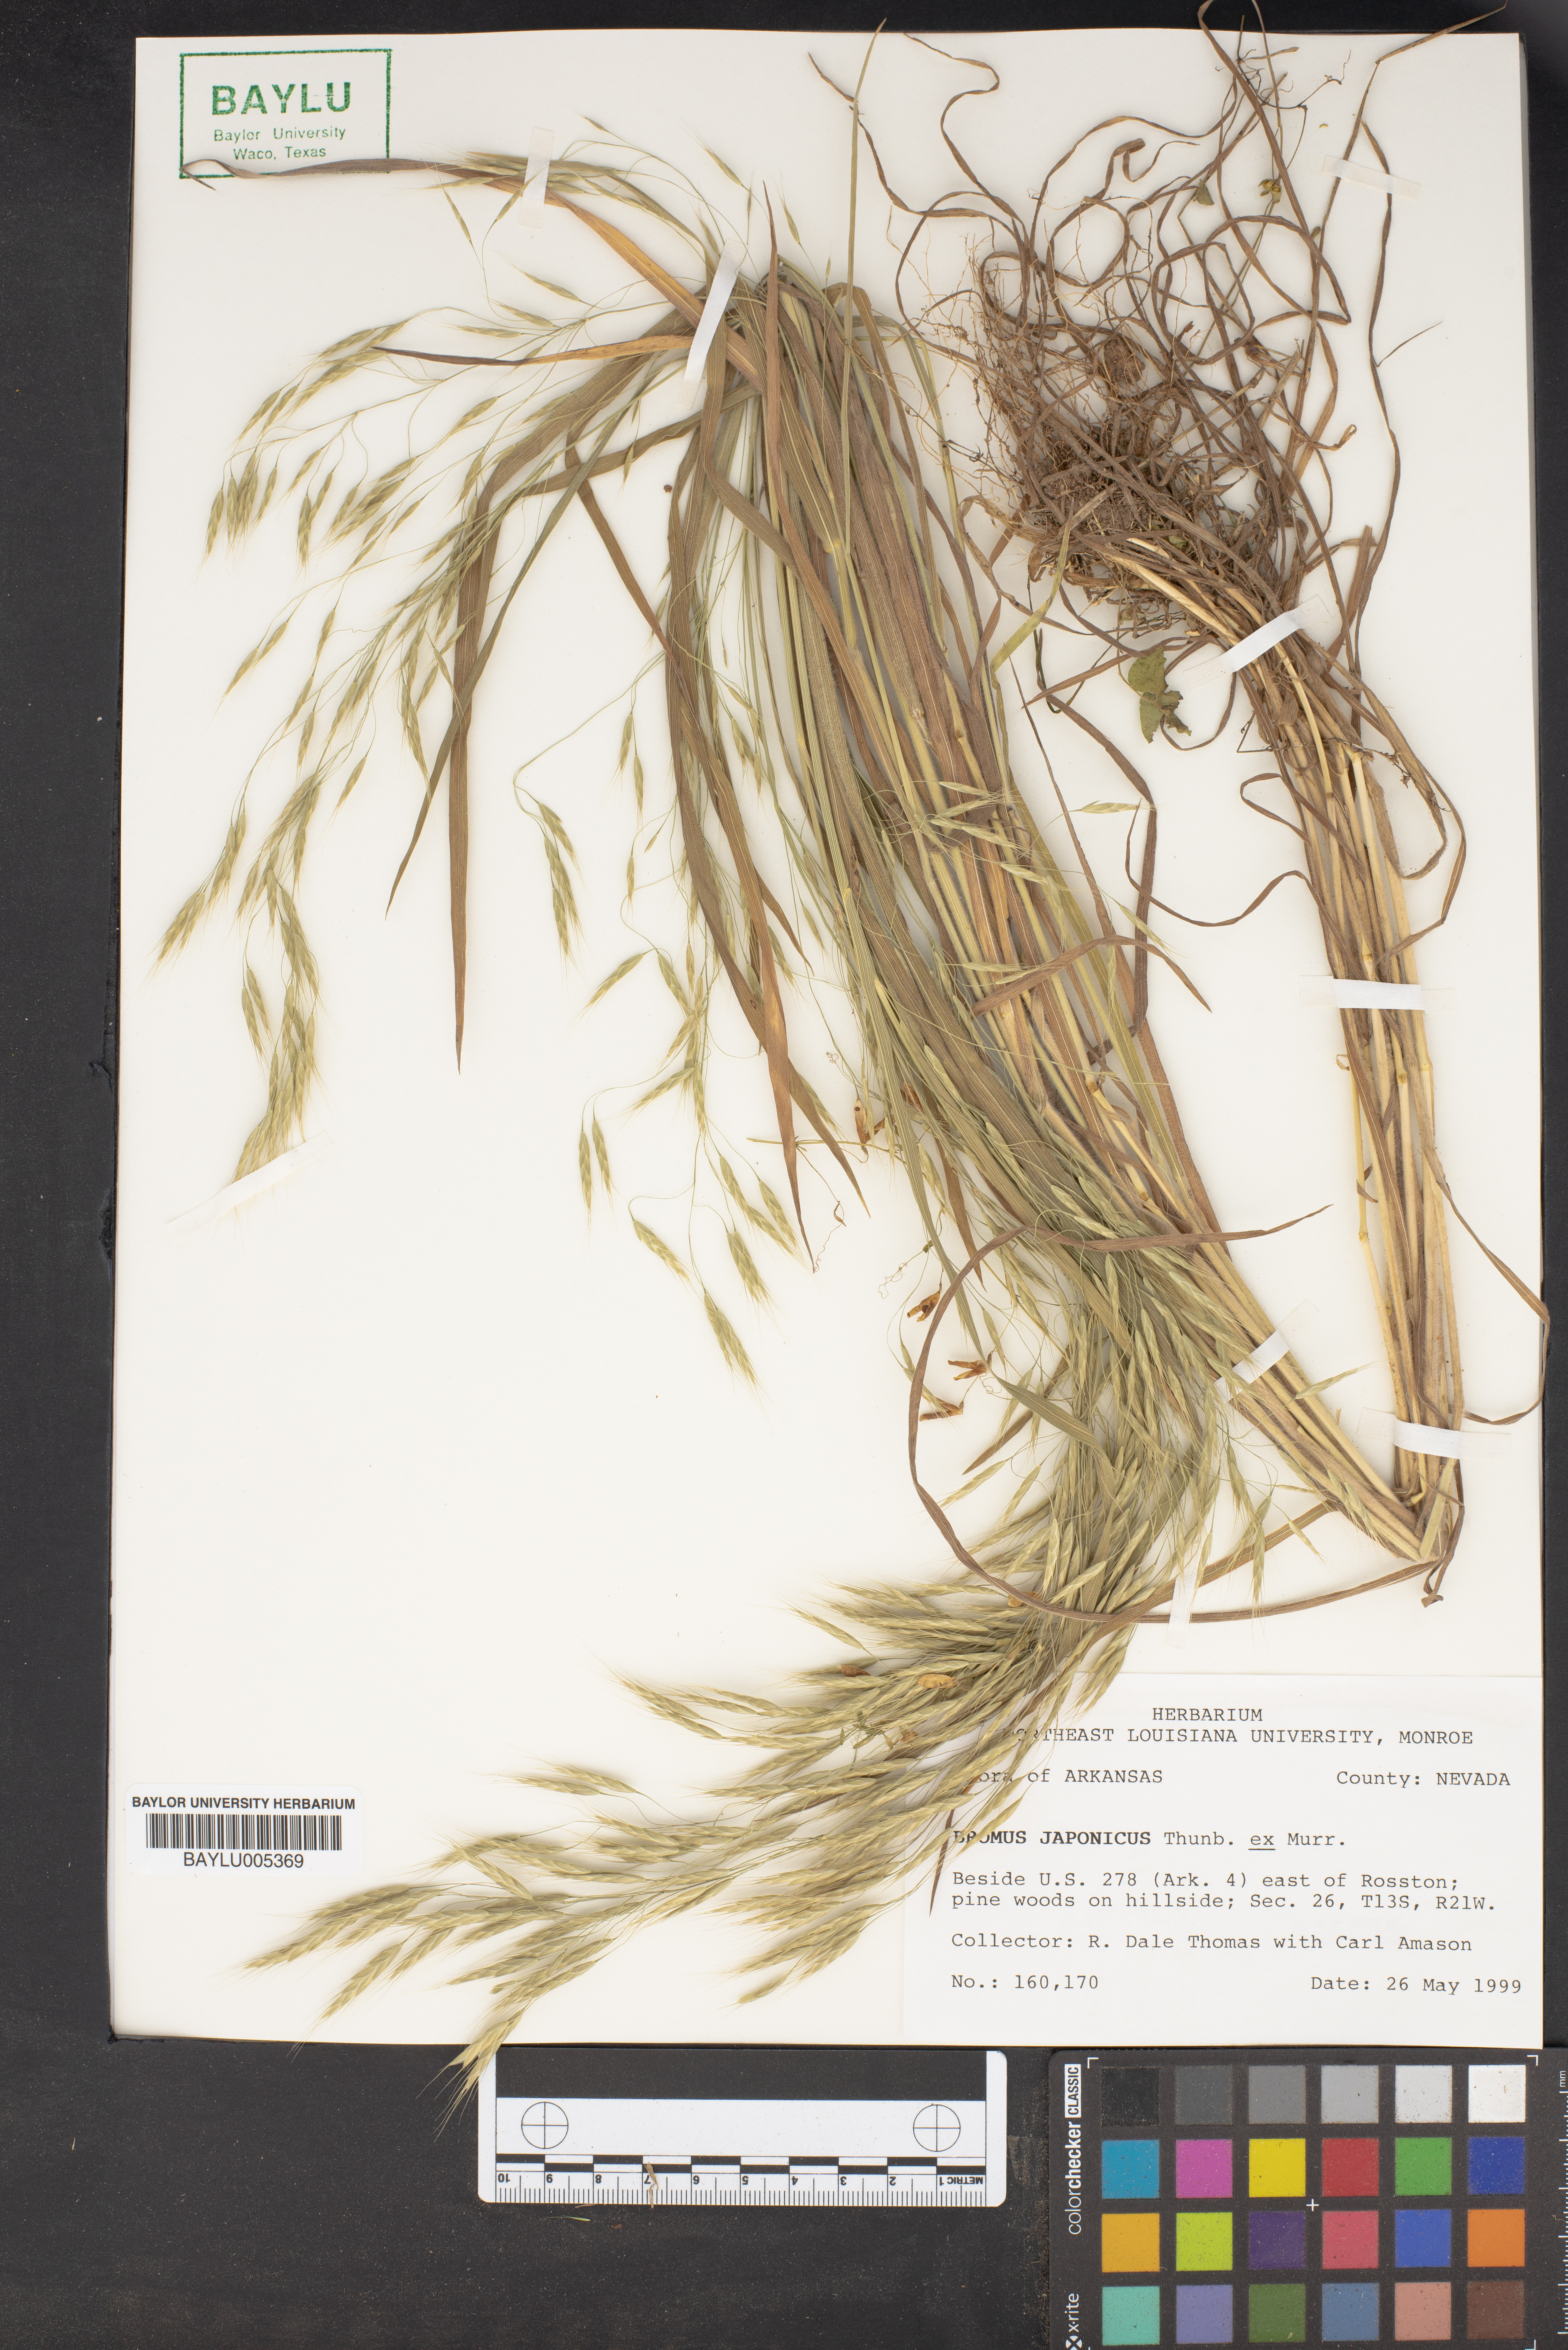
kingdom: Plantae
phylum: Tracheophyta
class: Liliopsida
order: Poales
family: Poaceae
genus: Bromus
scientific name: Bromus japonicus
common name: Japanese brome
